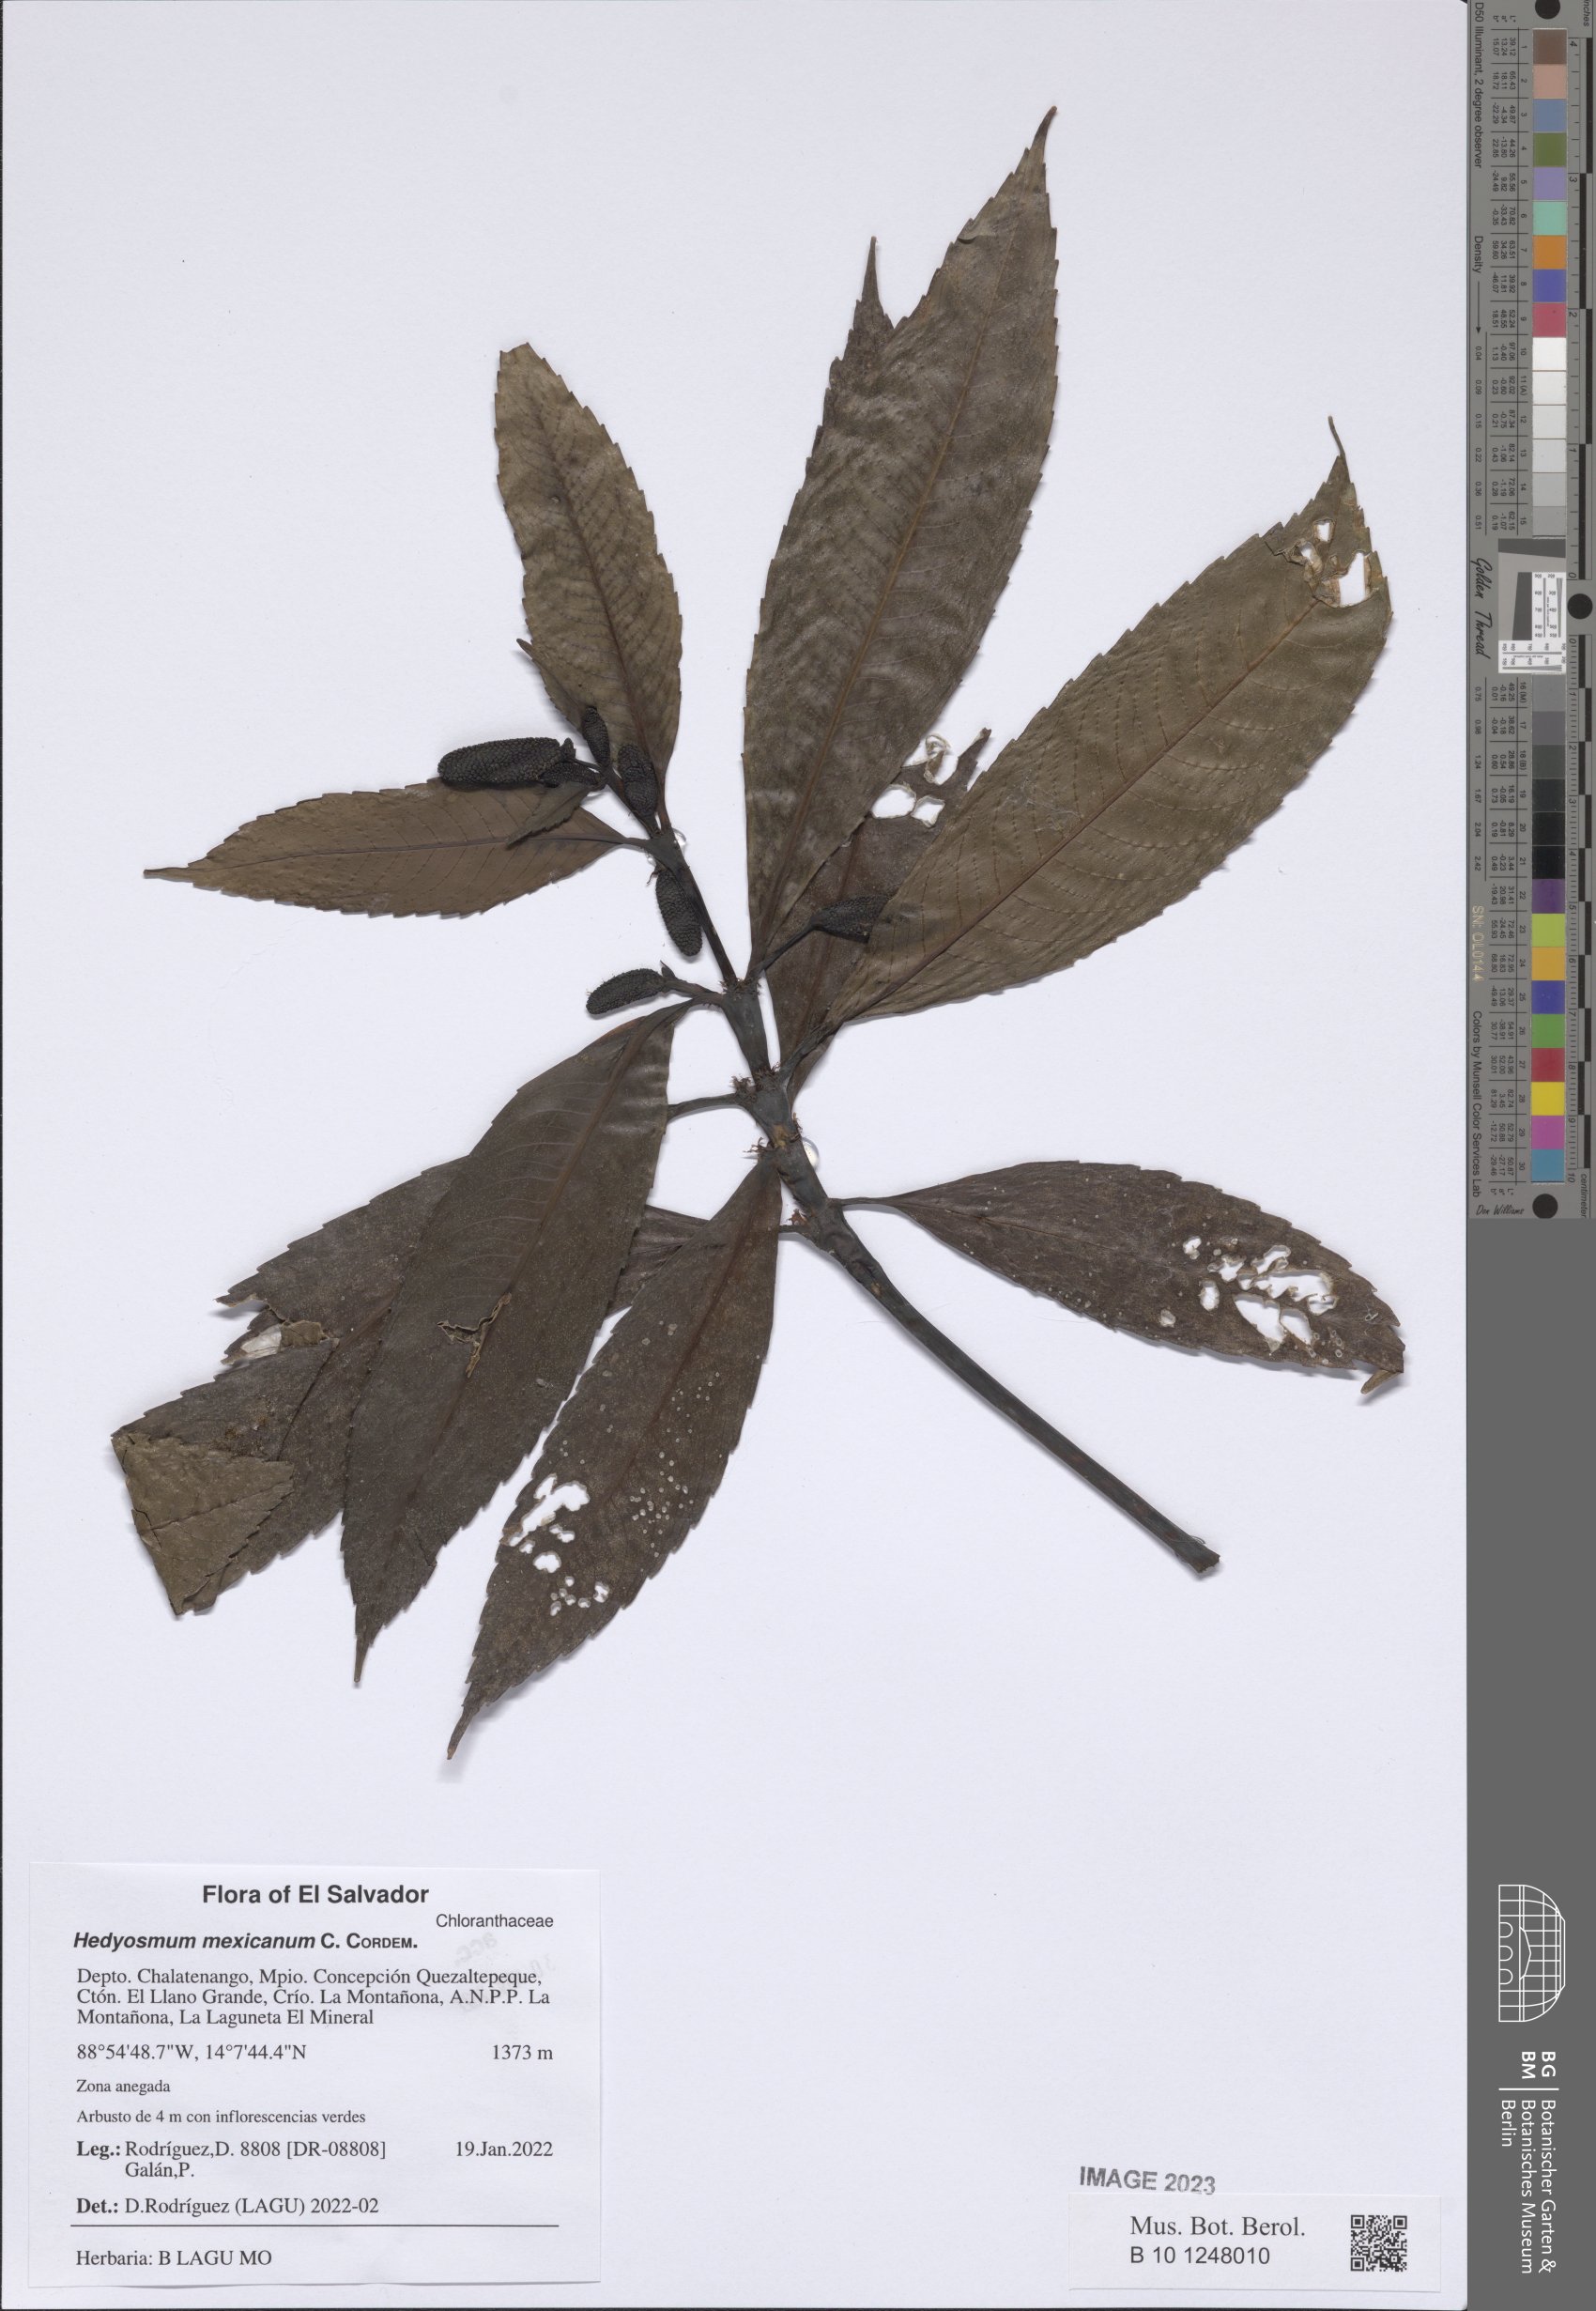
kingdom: Plantae
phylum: Tracheophyta
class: Magnoliopsida
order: Chloranthales
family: Chloranthaceae
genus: Hedyosmum
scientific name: Hedyosmum mexicanum
